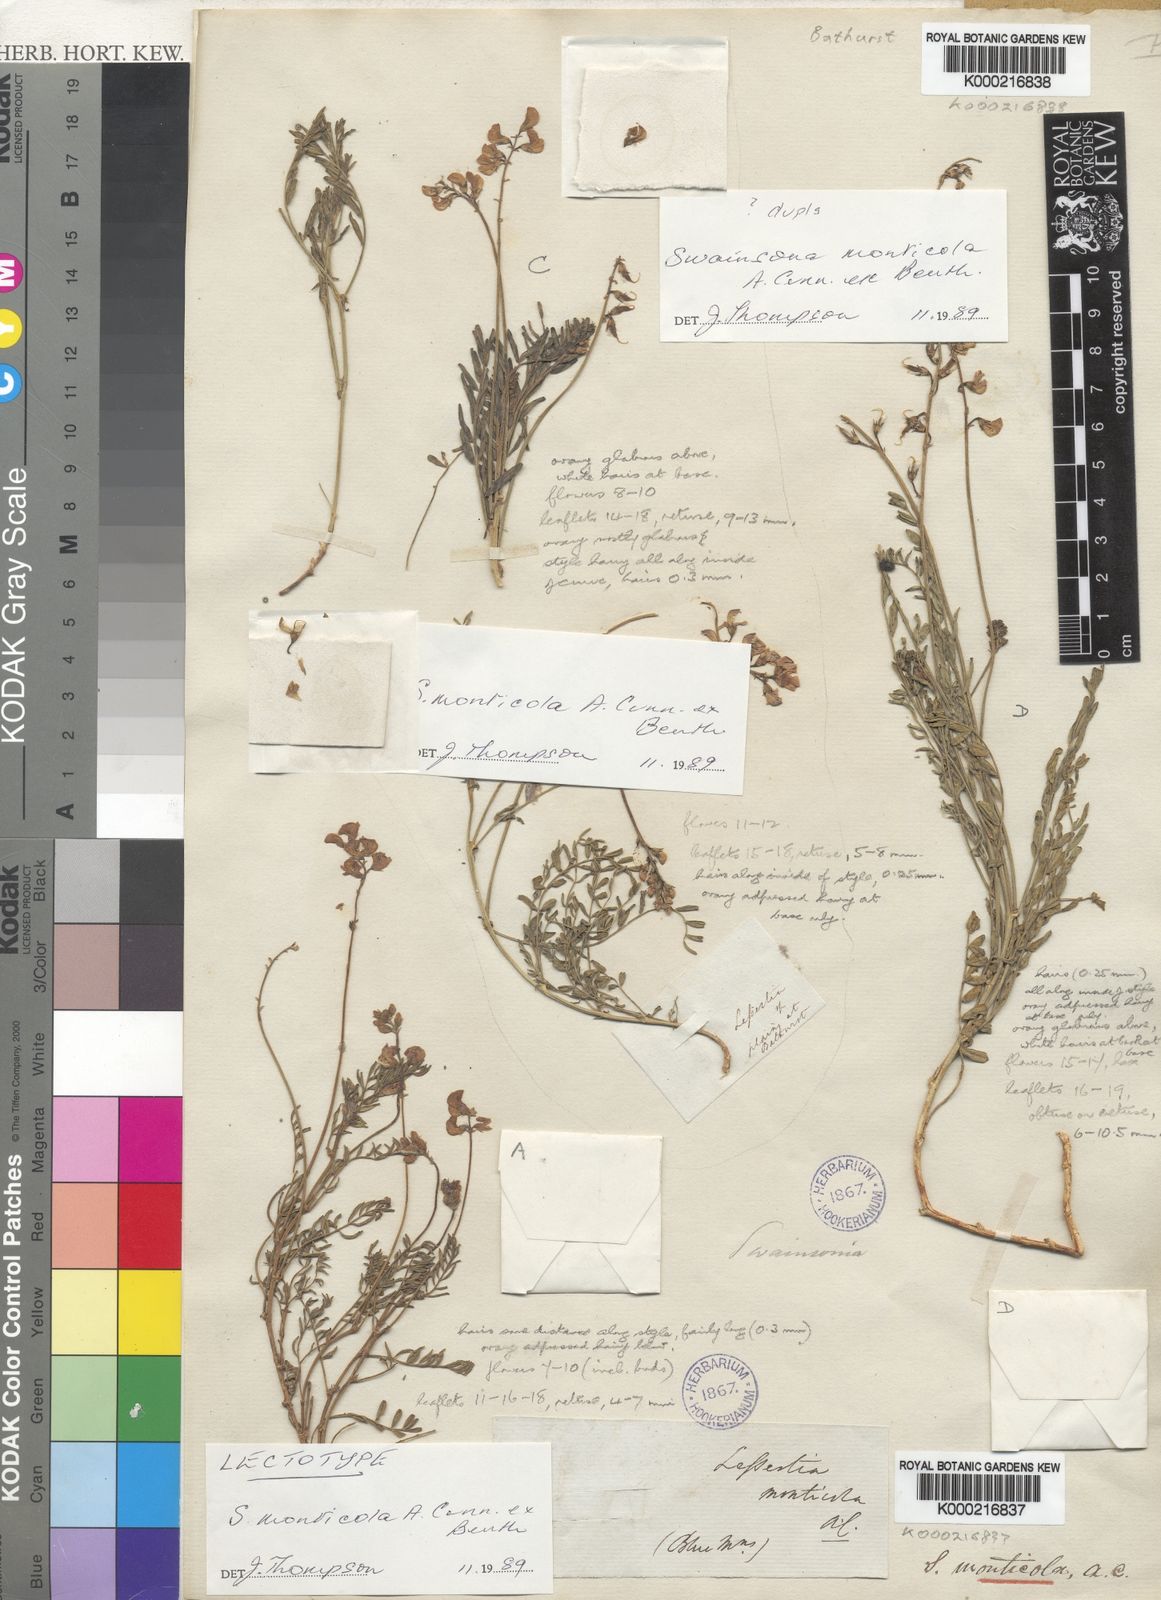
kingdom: Plantae
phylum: Tracheophyta
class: Magnoliopsida
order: Fabales
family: Fabaceae
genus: Swainsona
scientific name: Swainsona monticola
